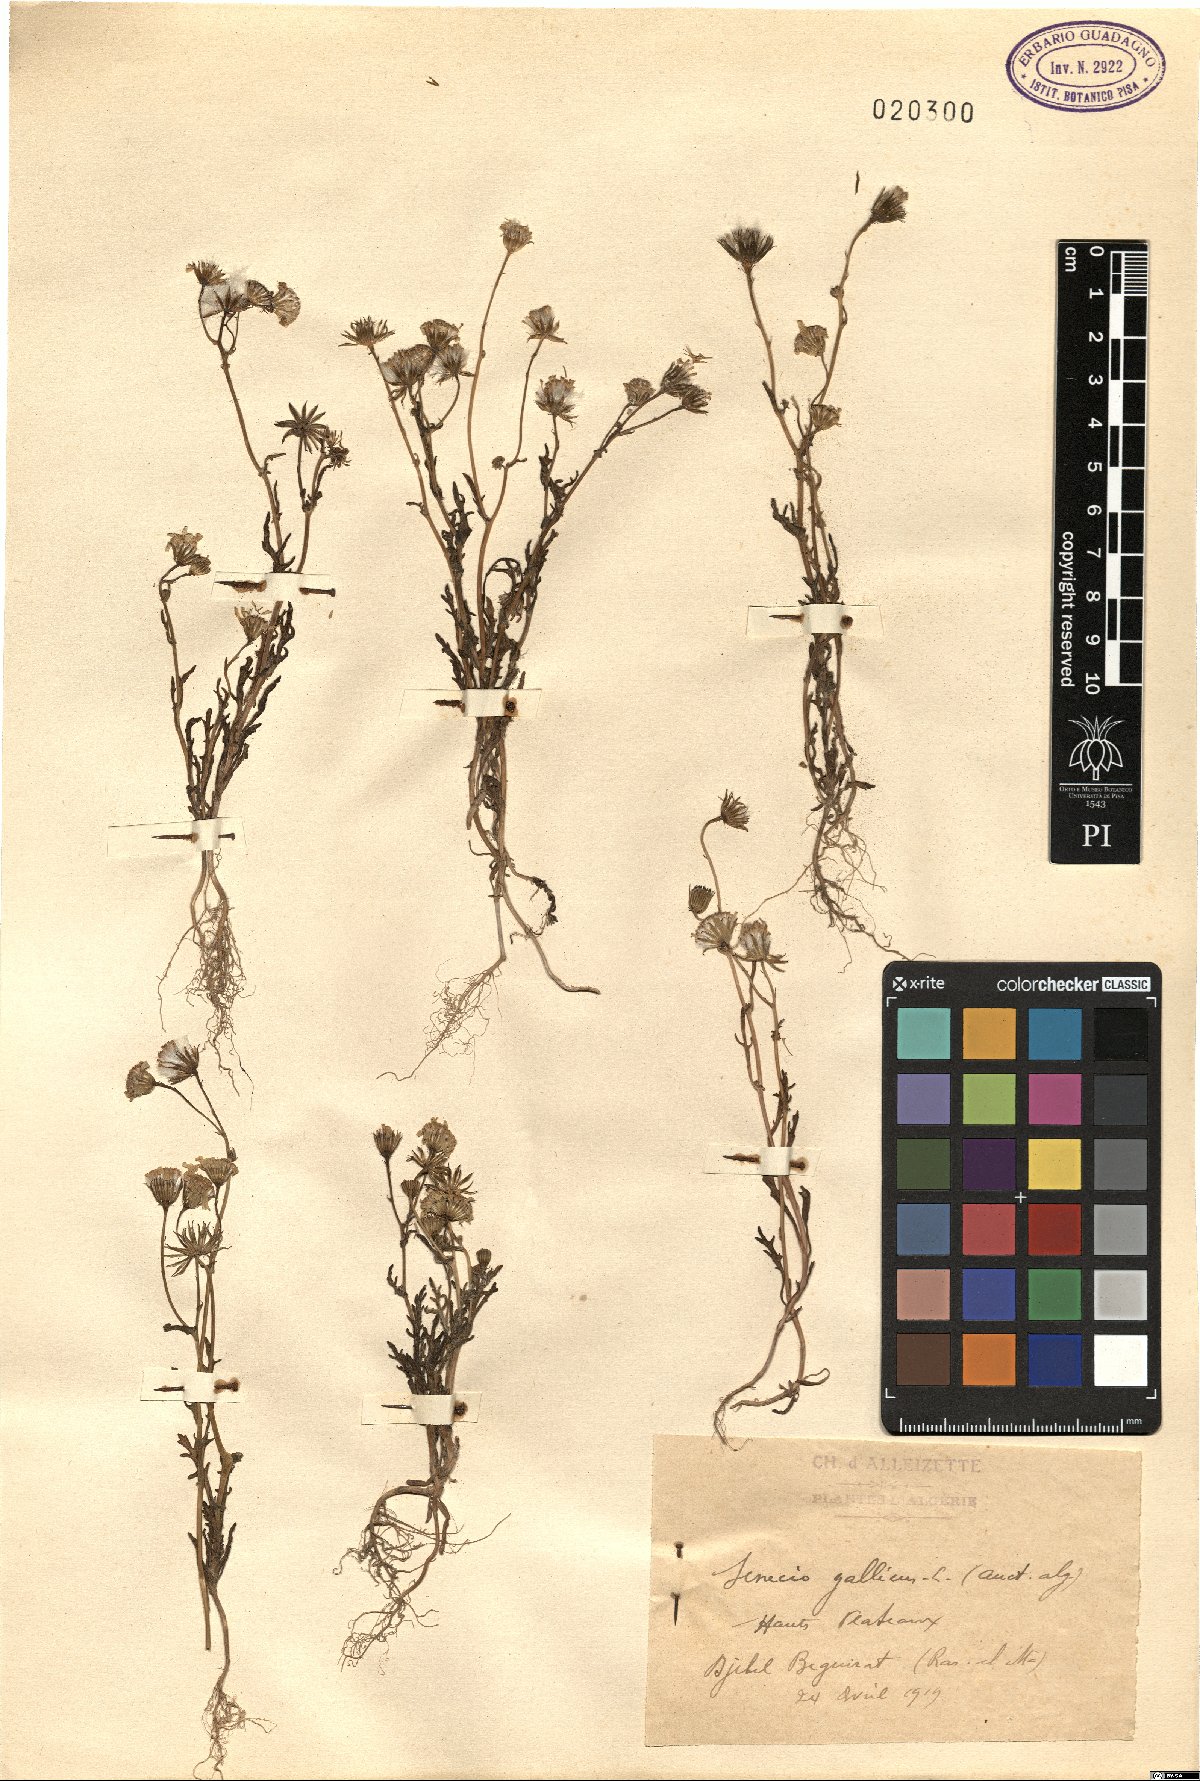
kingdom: Plantae
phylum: Tracheophyta
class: Magnoliopsida
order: Asterales
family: Asteraceae
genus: Senecio
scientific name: Senecio gallicus
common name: French groundsel
